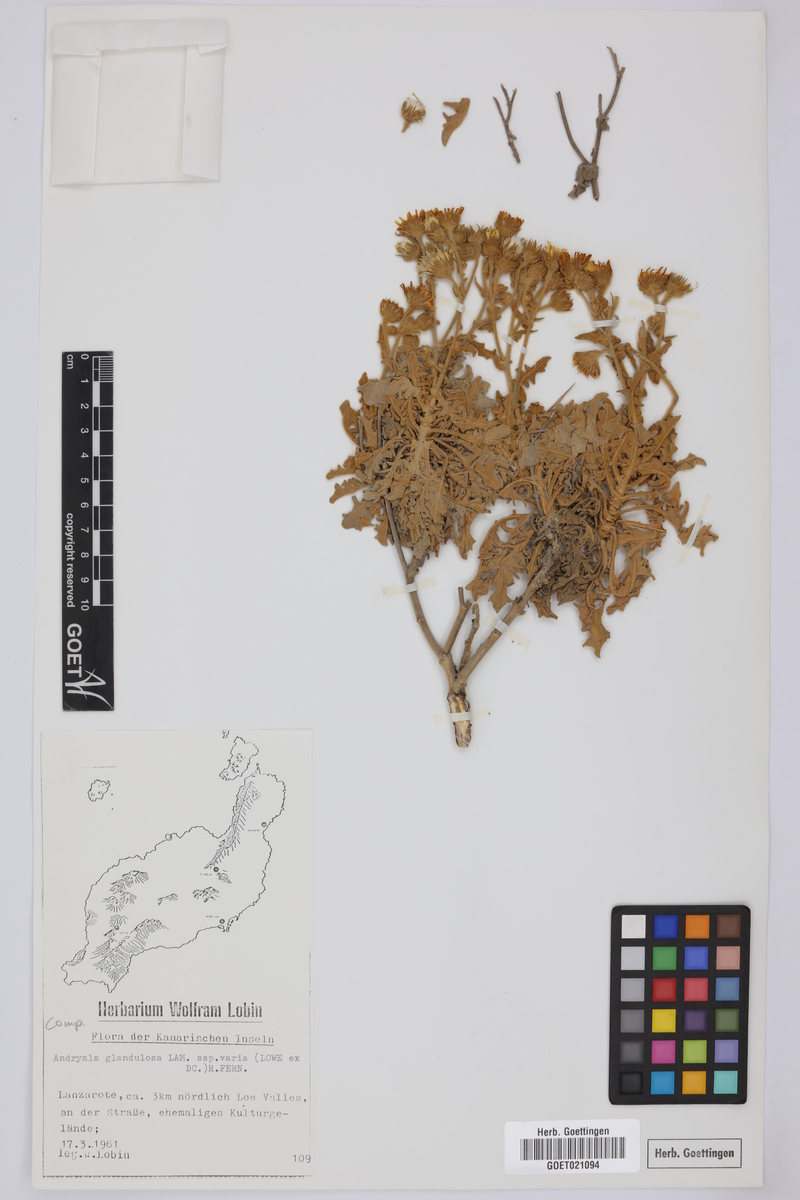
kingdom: Plantae
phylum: Tracheophyta
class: Magnoliopsida
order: Asterales
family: Asteraceae
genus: Andryala
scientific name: Andryala glandulosa
